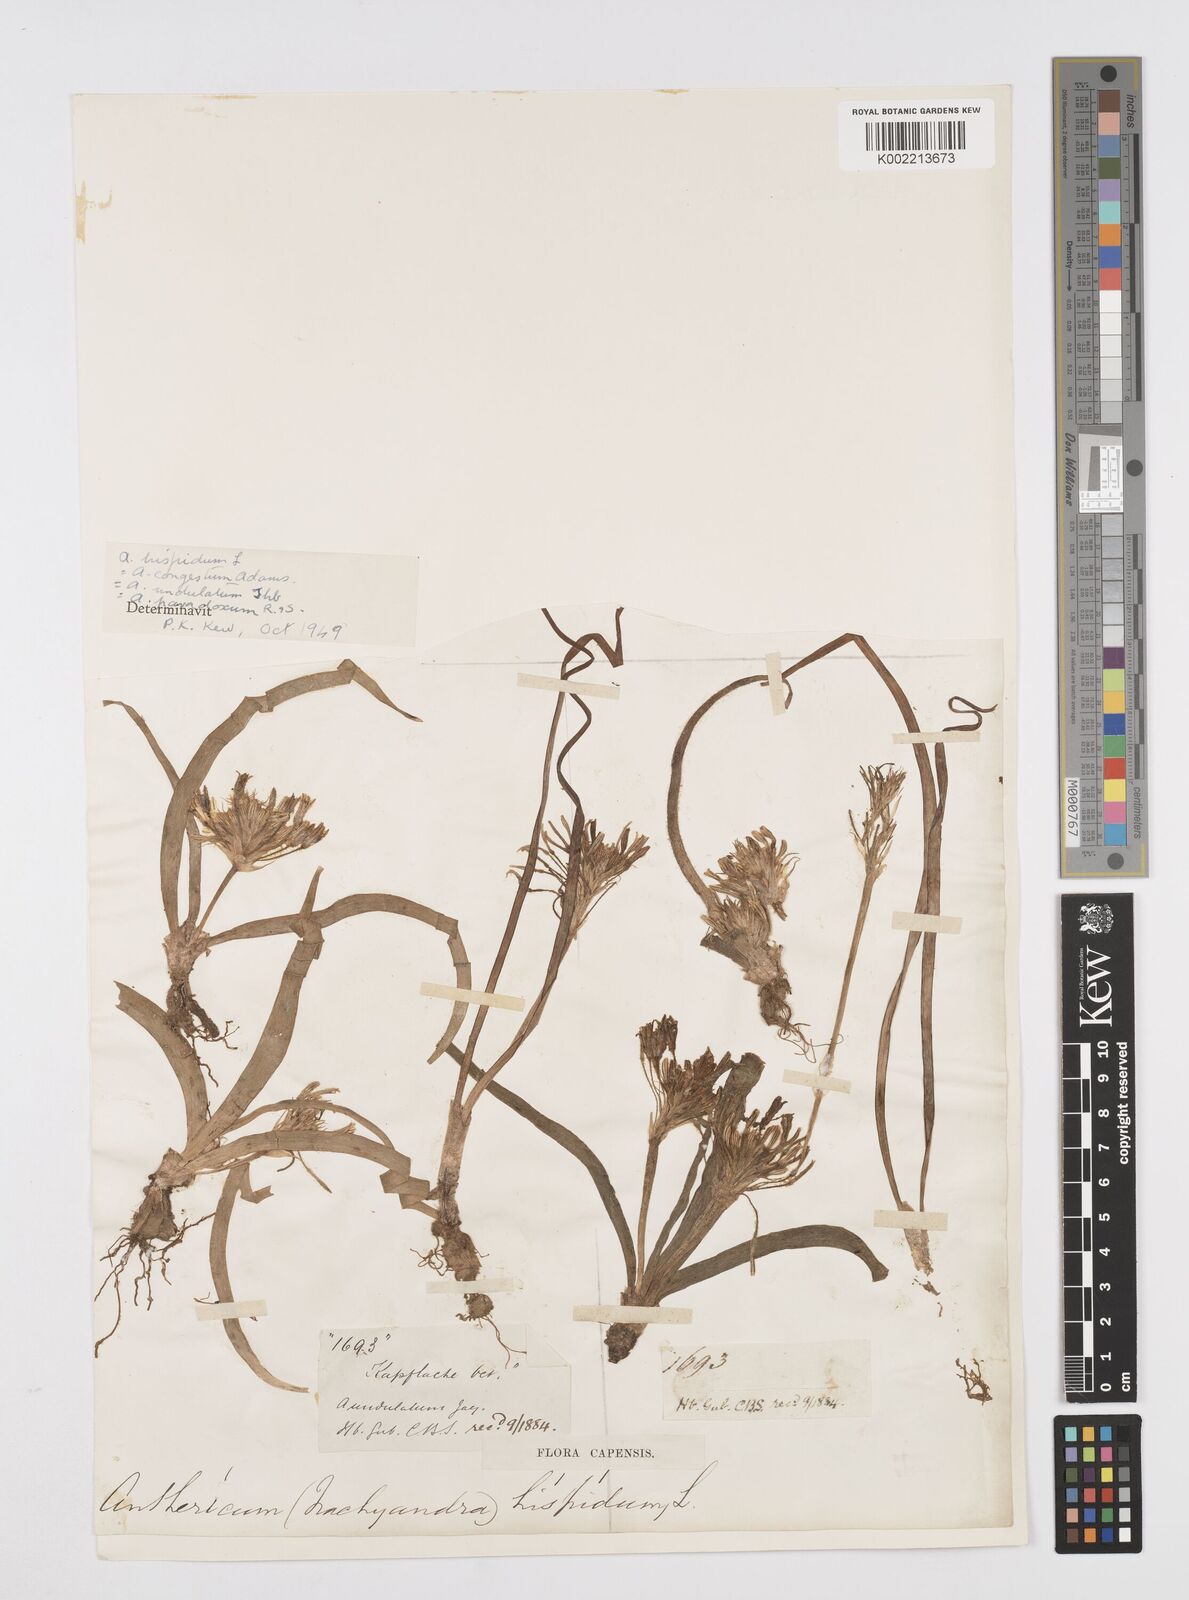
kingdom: Plantae
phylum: Tracheophyta
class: Liliopsida
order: Asparagales
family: Asphodelaceae
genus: Trachyandra
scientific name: Trachyandra hispida
